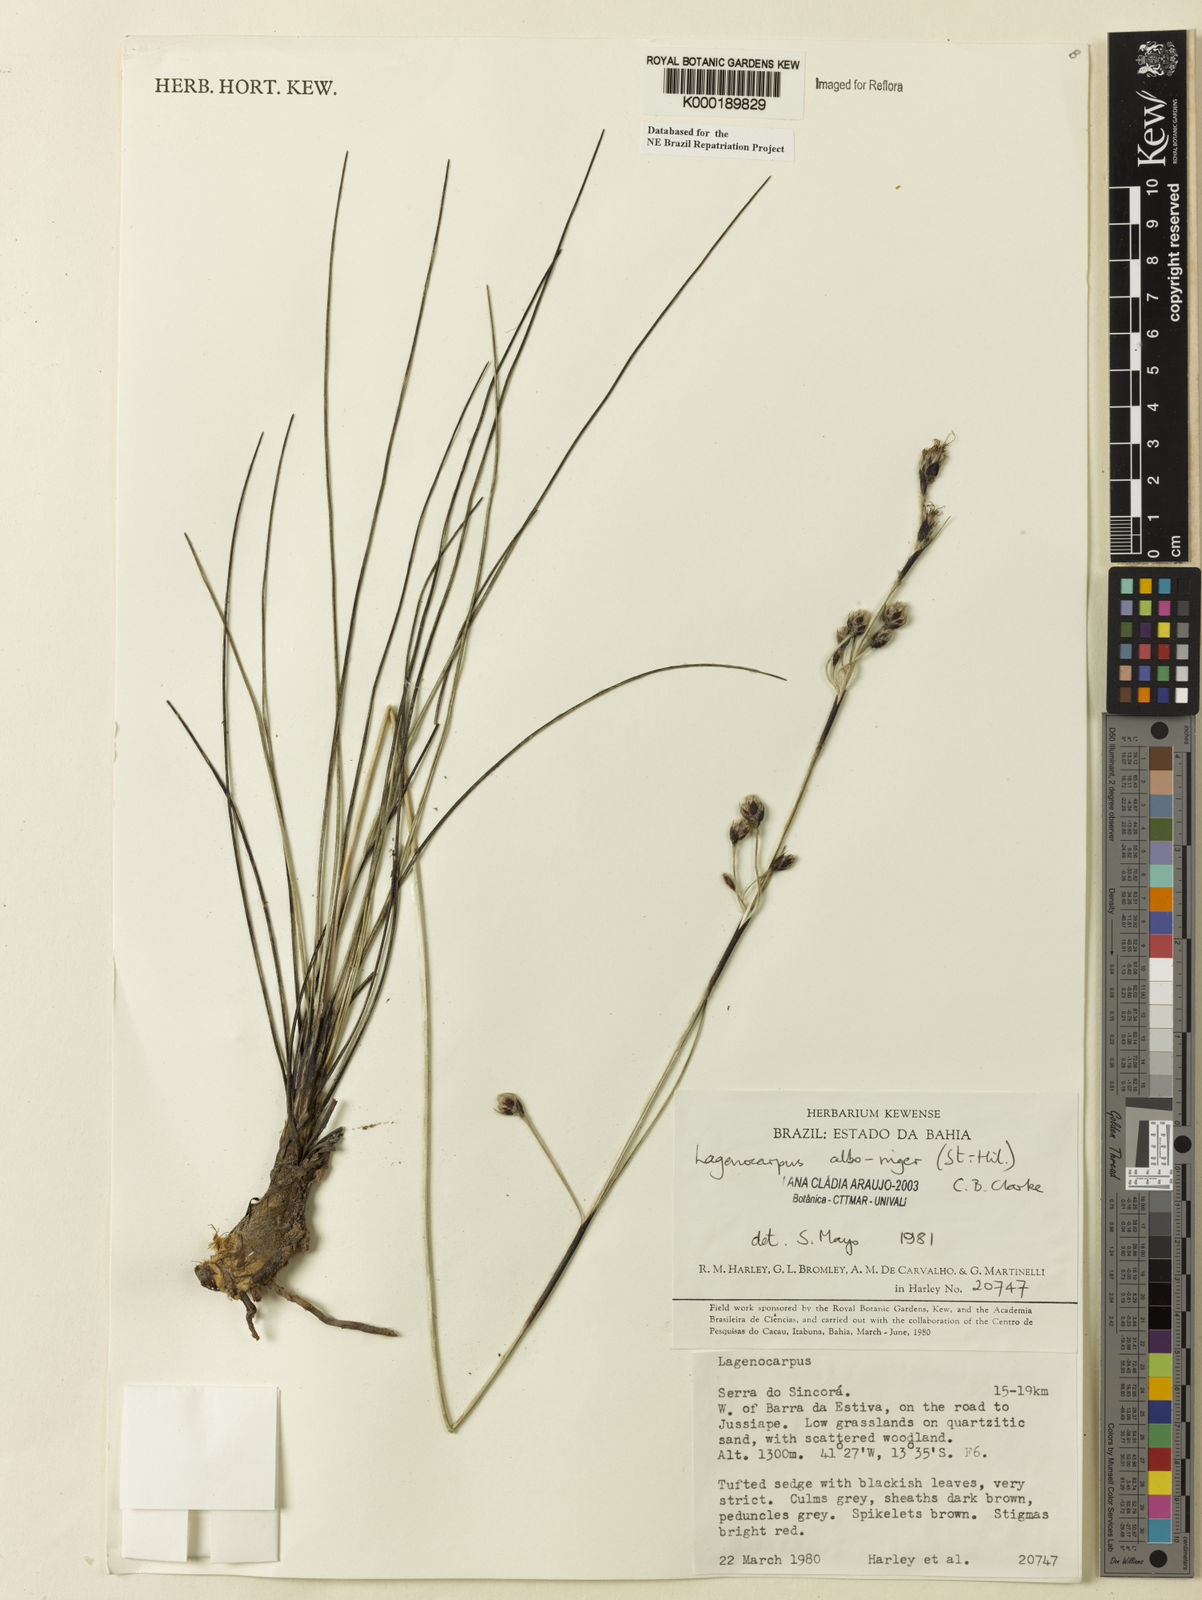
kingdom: Plantae
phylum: Tracheophyta
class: Liliopsida
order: Poales
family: Cyperaceae
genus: Lagenocarpus
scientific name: Lagenocarpus alboniger
